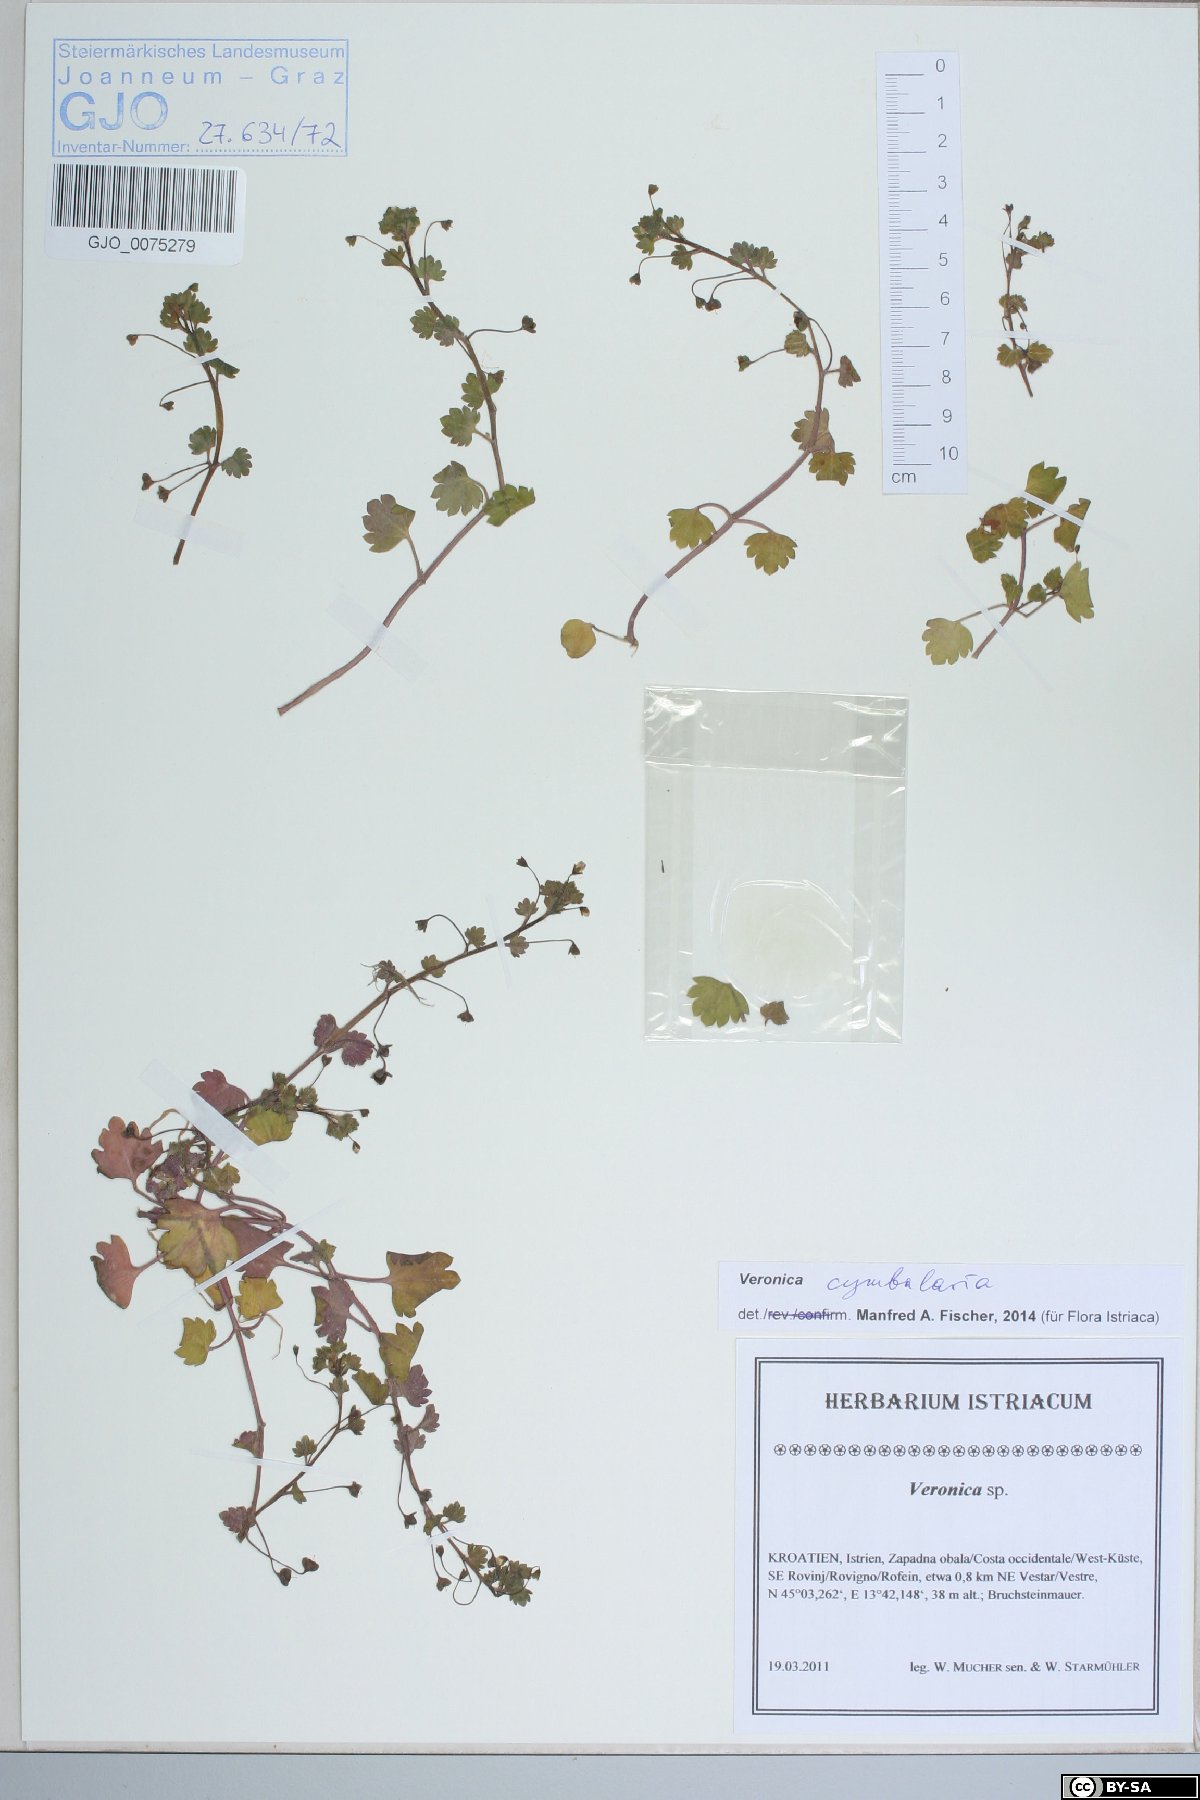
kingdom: Plantae
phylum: Tracheophyta
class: Magnoliopsida
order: Lamiales
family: Plantaginaceae
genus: Veronica
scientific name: Veronica cymbalaria
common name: Pale speedwell
